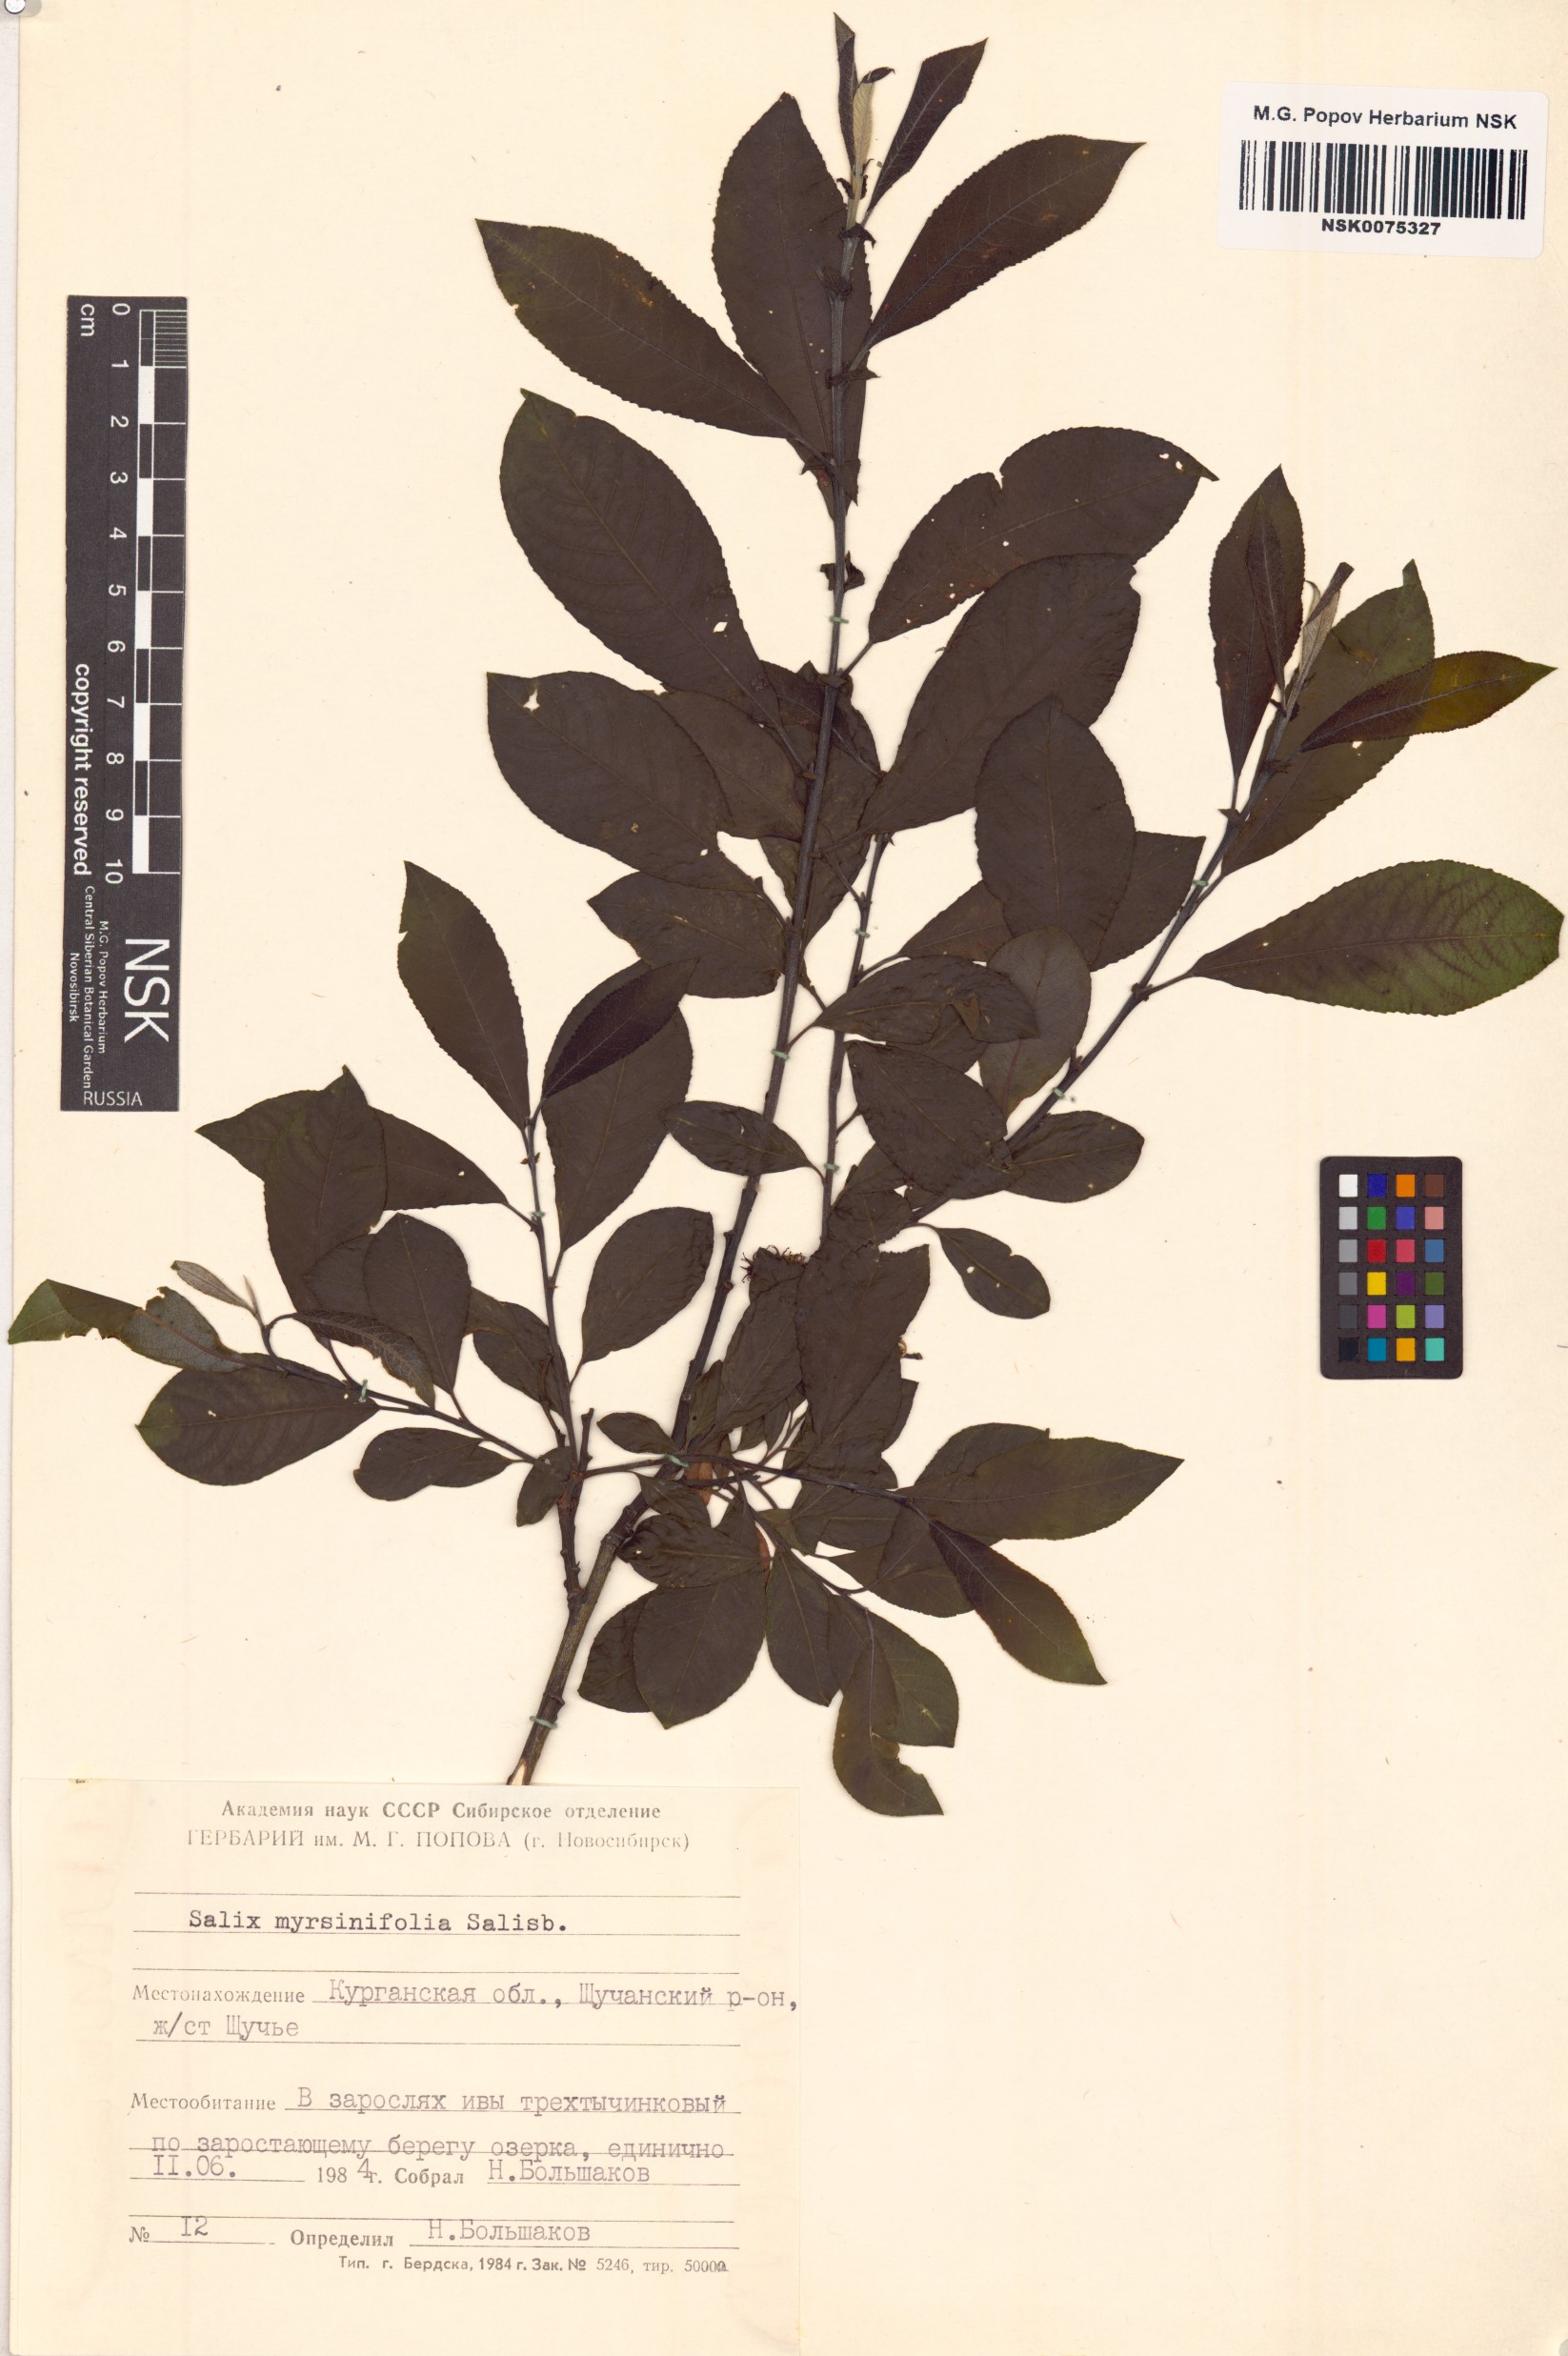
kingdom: Plantae
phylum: Tracheophyta
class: Magnoliopsida
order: Malpighiales
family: Salicaceae
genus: Salix
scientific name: Salix myrsinifolia
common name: Dark-leaved willow
